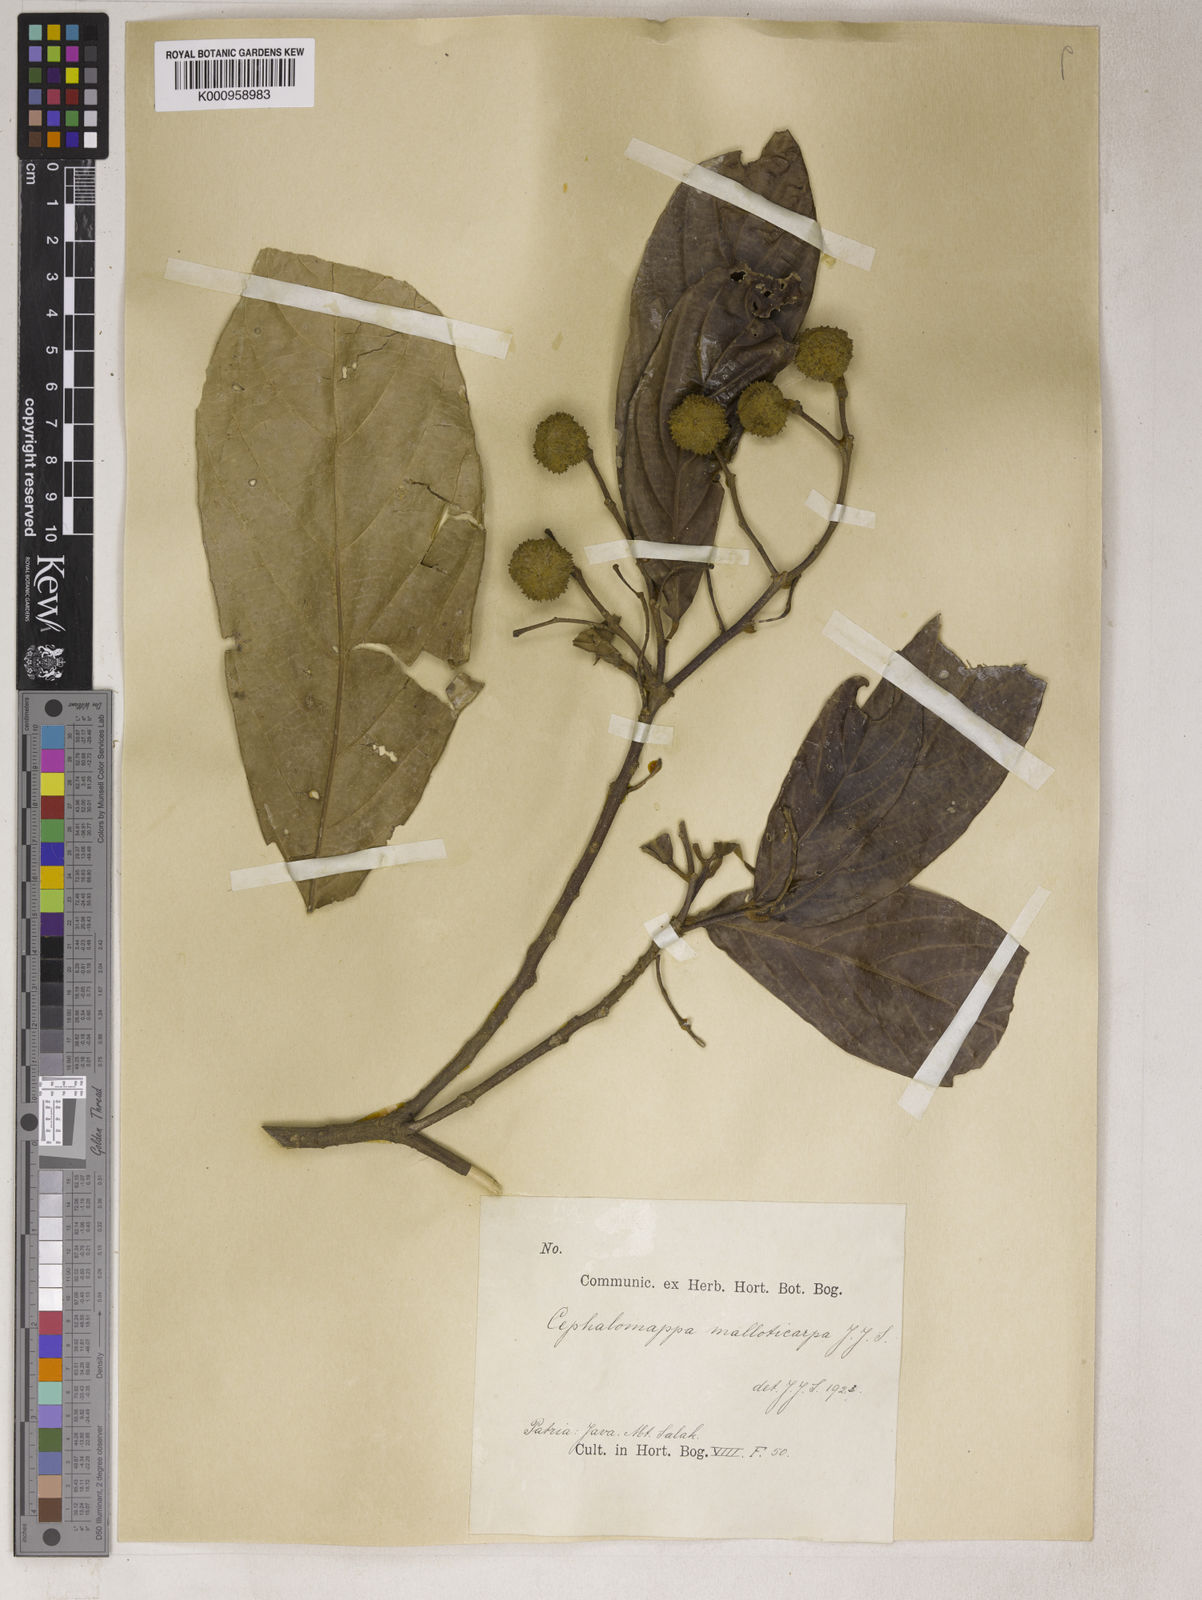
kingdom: Plantae
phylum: Tracheophyta
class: Magnoliopsida
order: Malpighiales
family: Euphorbiaceae
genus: Cephalomappa
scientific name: Cephalomappa malloticarpa
